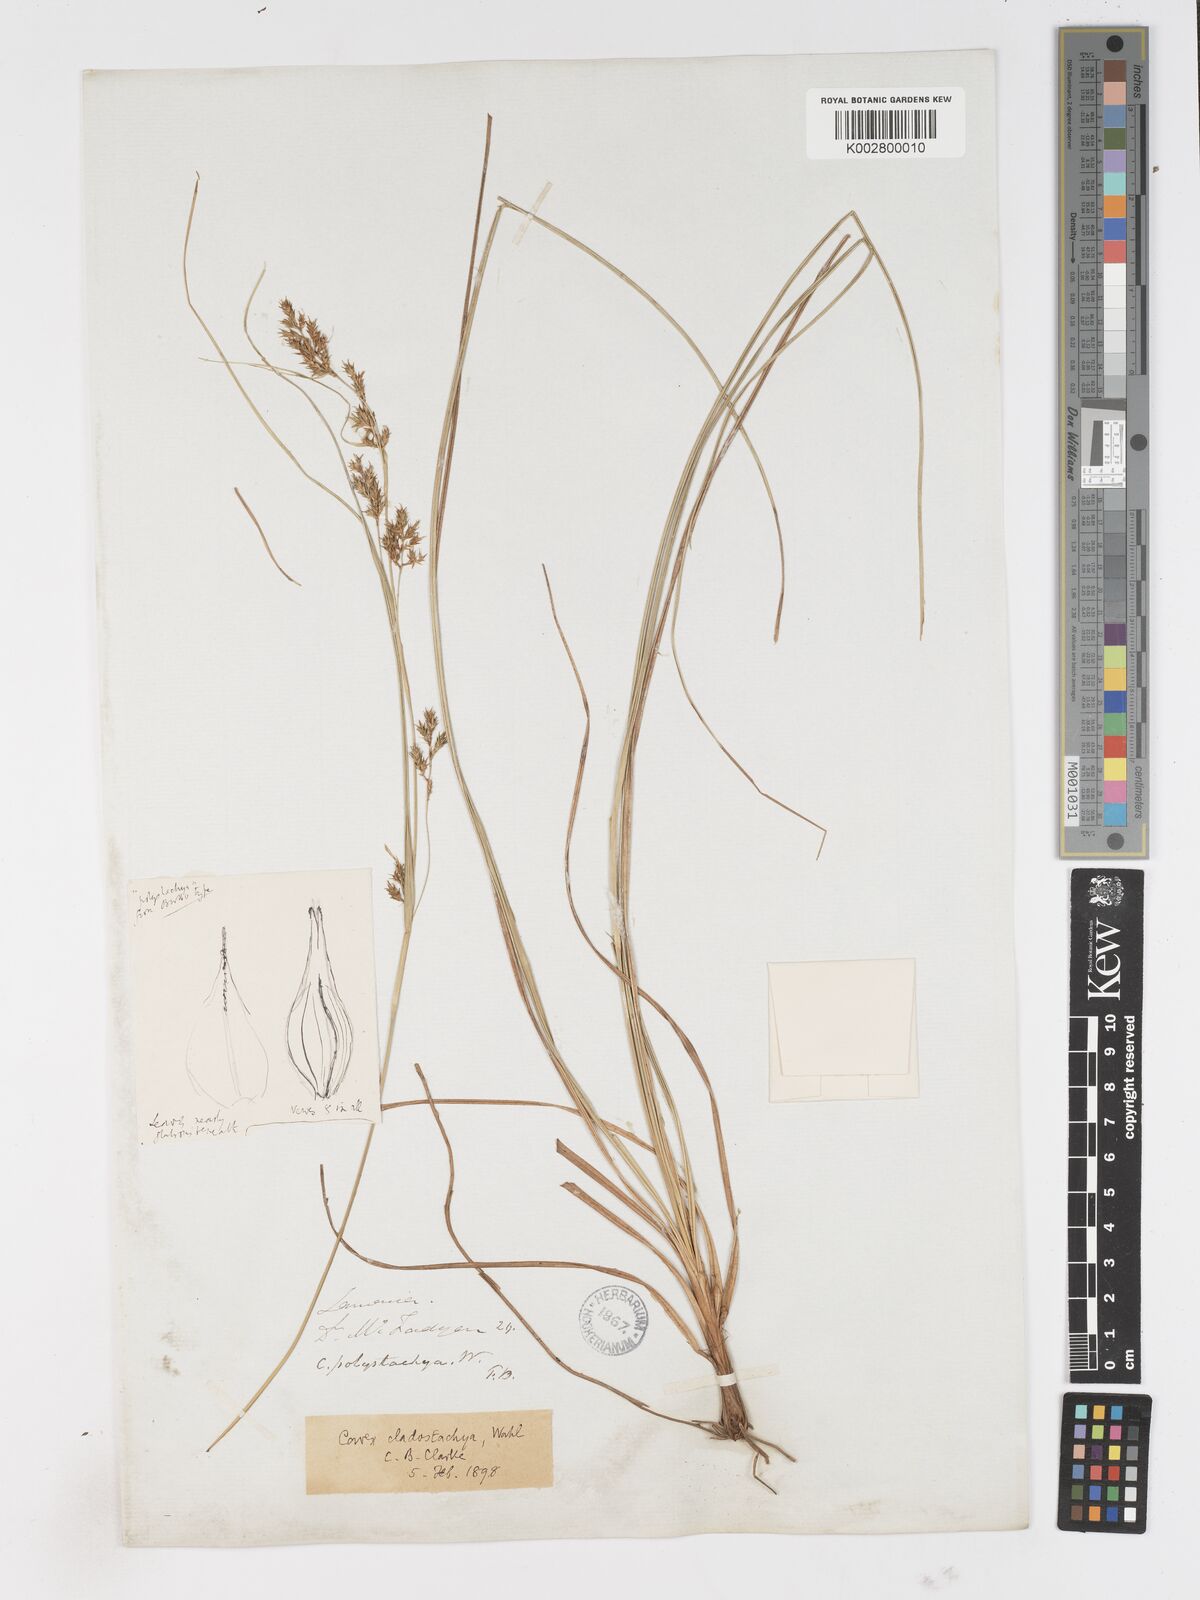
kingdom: Plantae
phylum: Tracheophyta
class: Liliopsida
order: Poales
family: Cyperaceae
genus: Carex
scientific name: Carex polystachya
